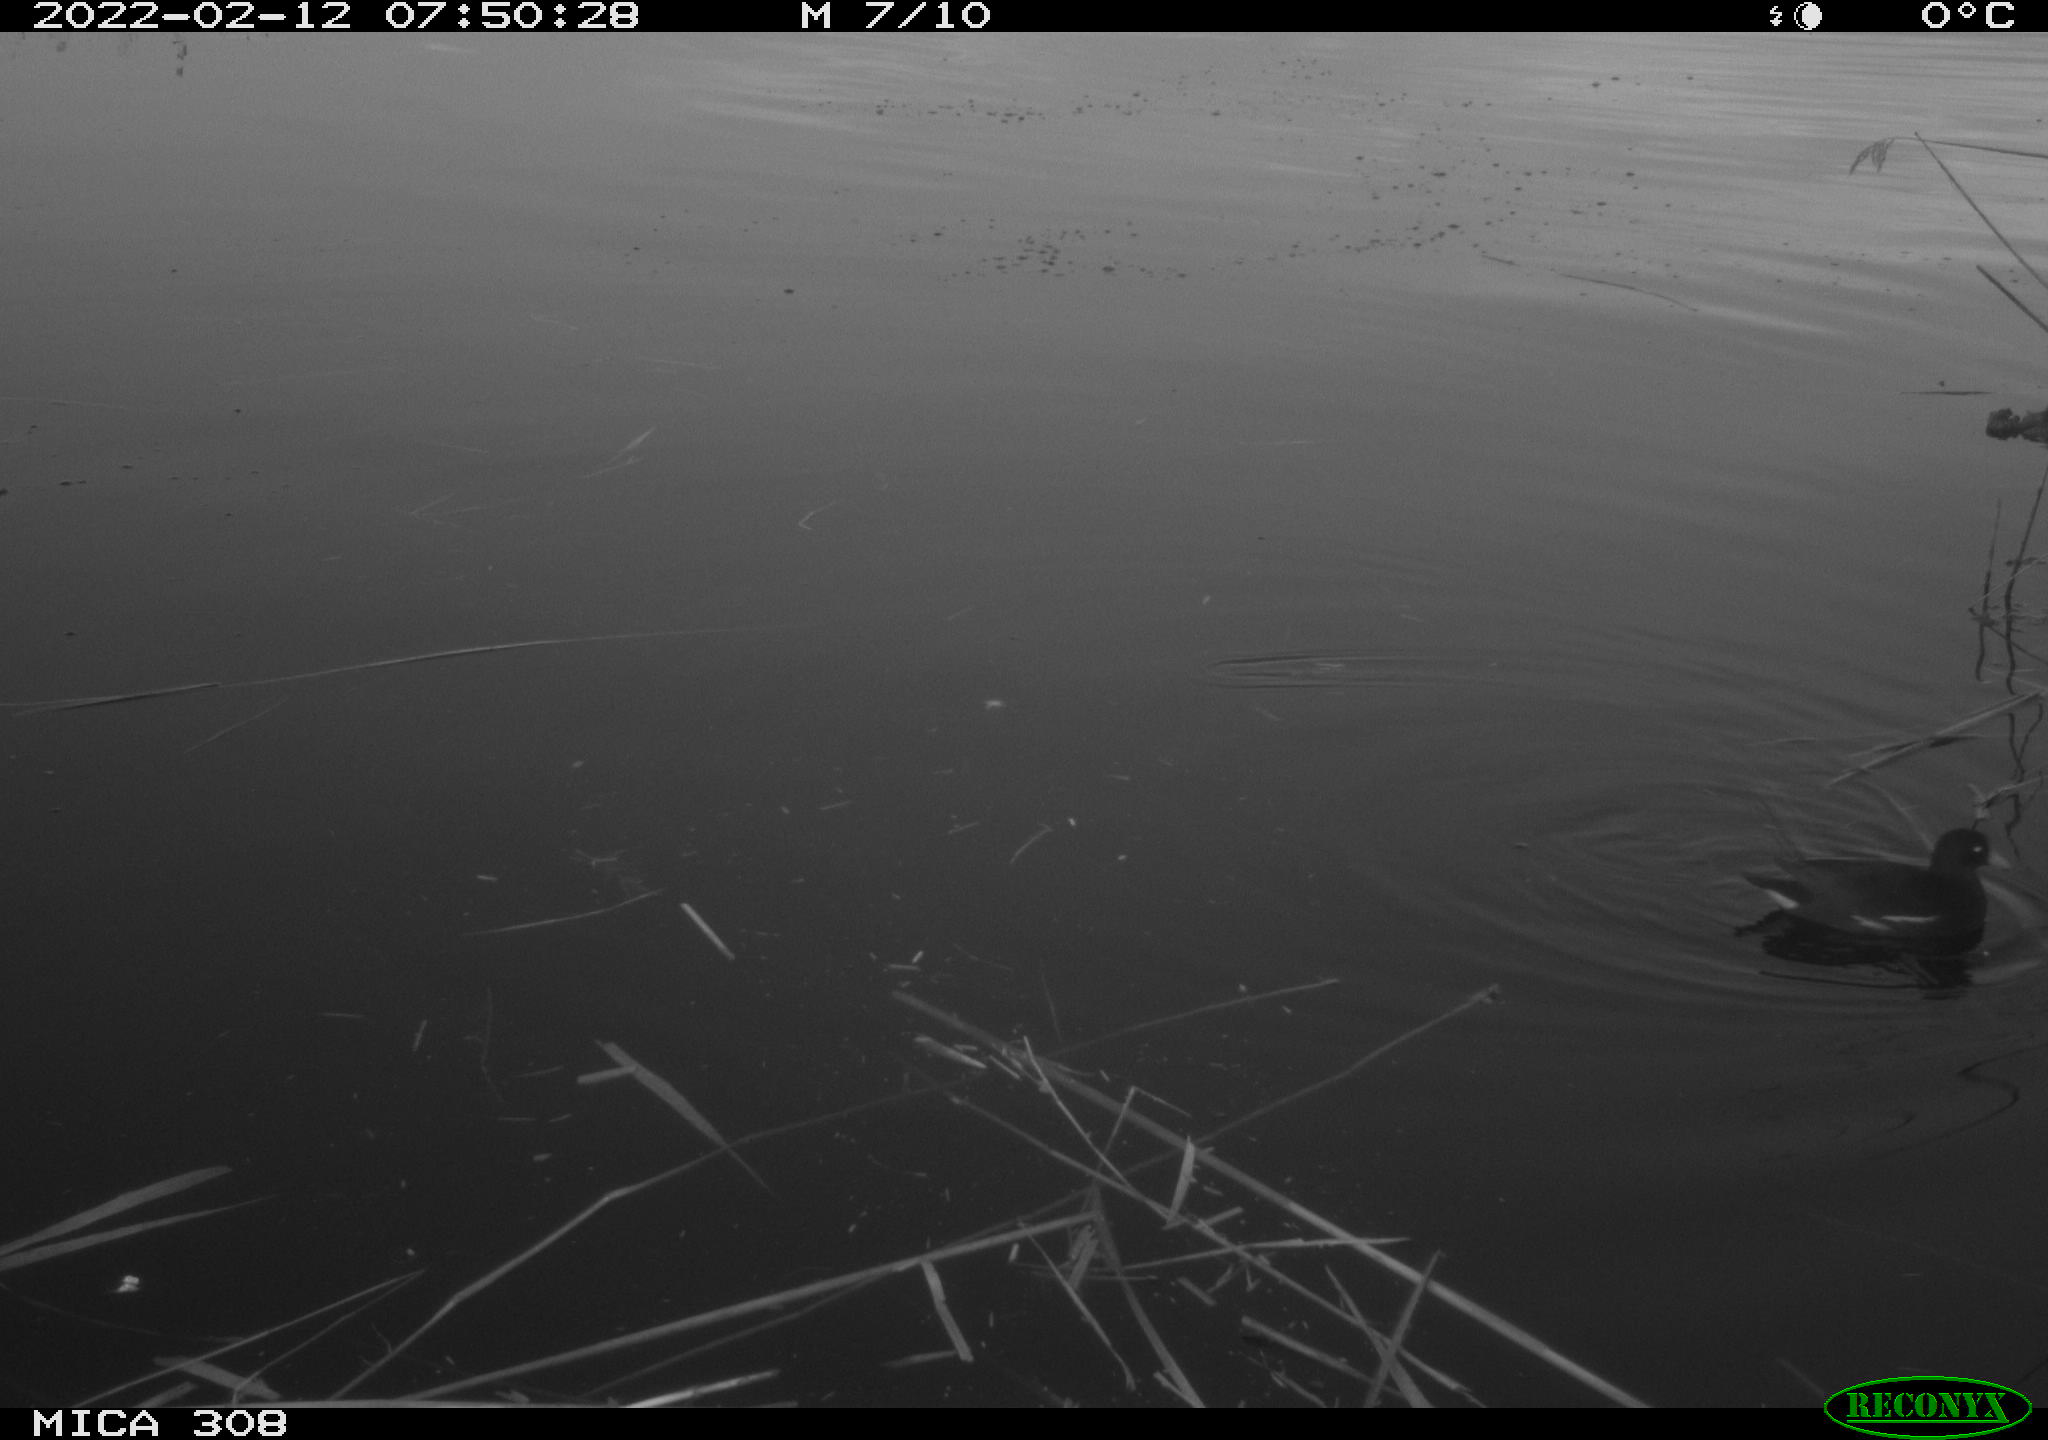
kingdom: Animalia
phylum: Chordata
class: Aves
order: Gruiformes
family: Rallidae
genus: Gallinula
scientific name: Gallinula chloropus
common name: Common moorhen
